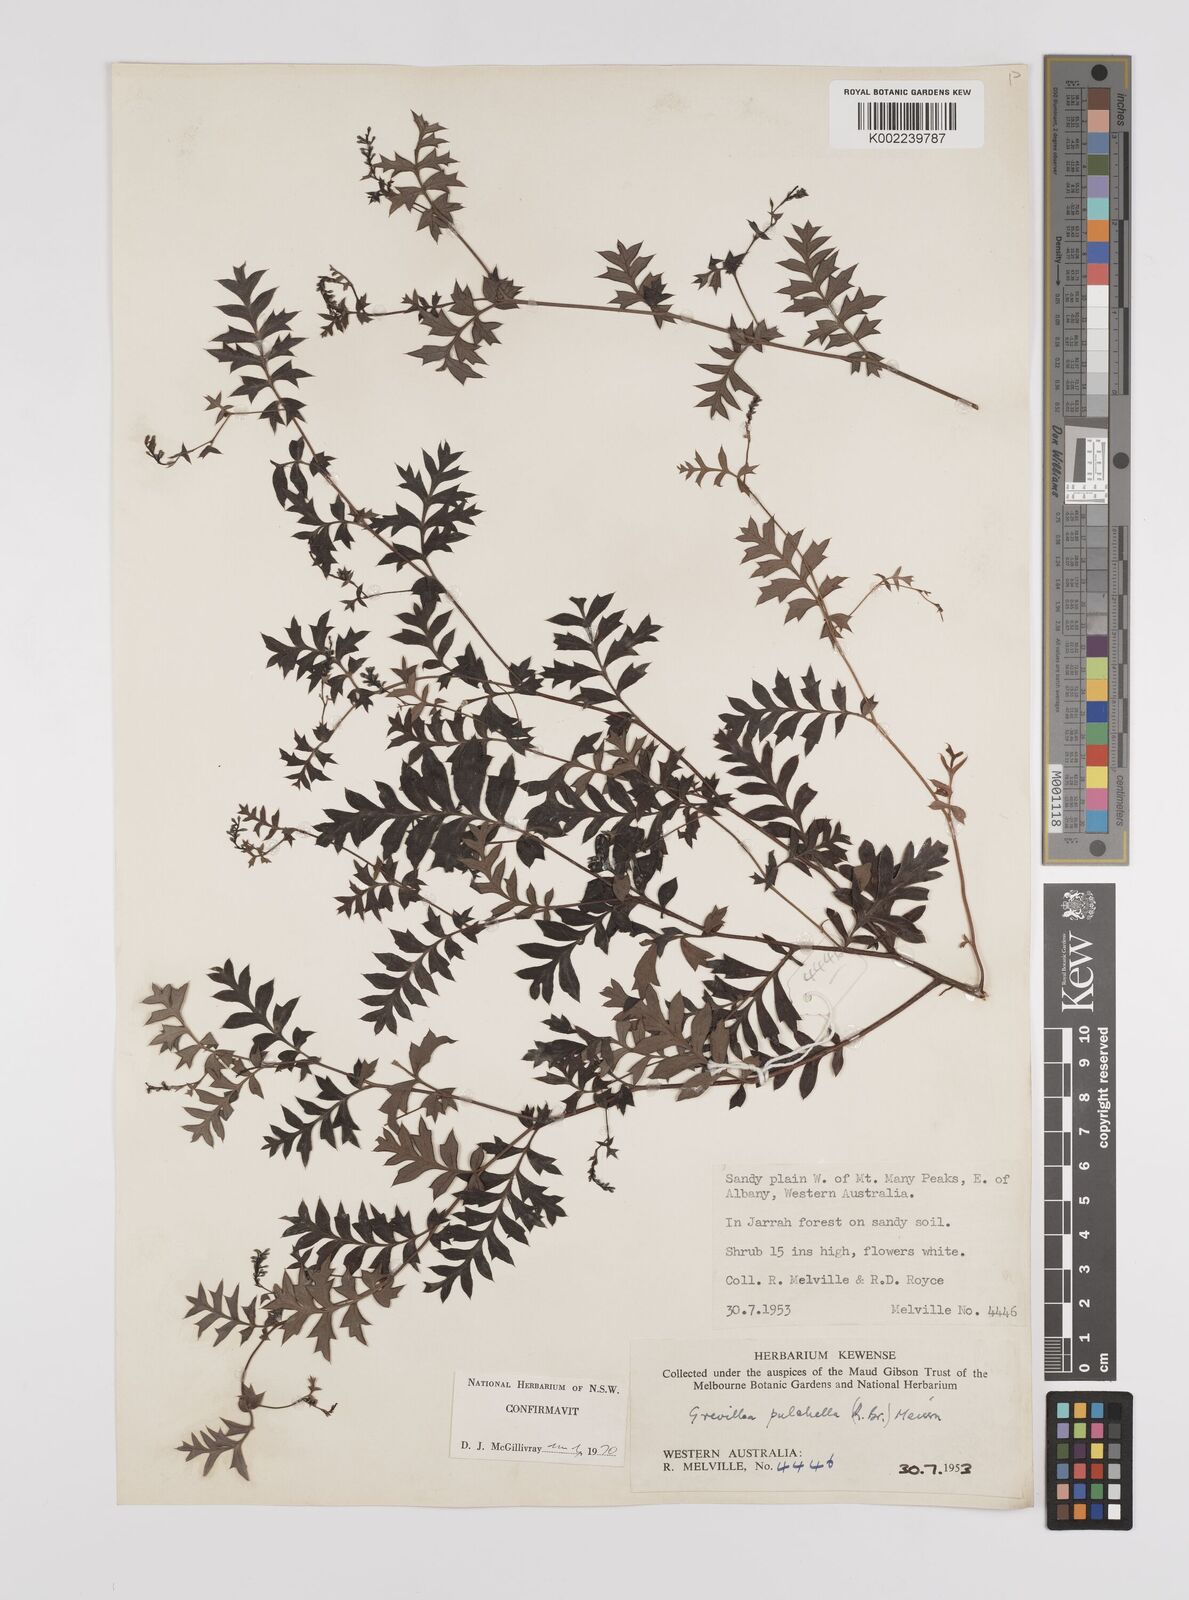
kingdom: Plantae
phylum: Tracheophyta
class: Magnoliopsida
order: Proteales
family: Proteaceae
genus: Grevillea
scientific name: Grevillea pulchella
